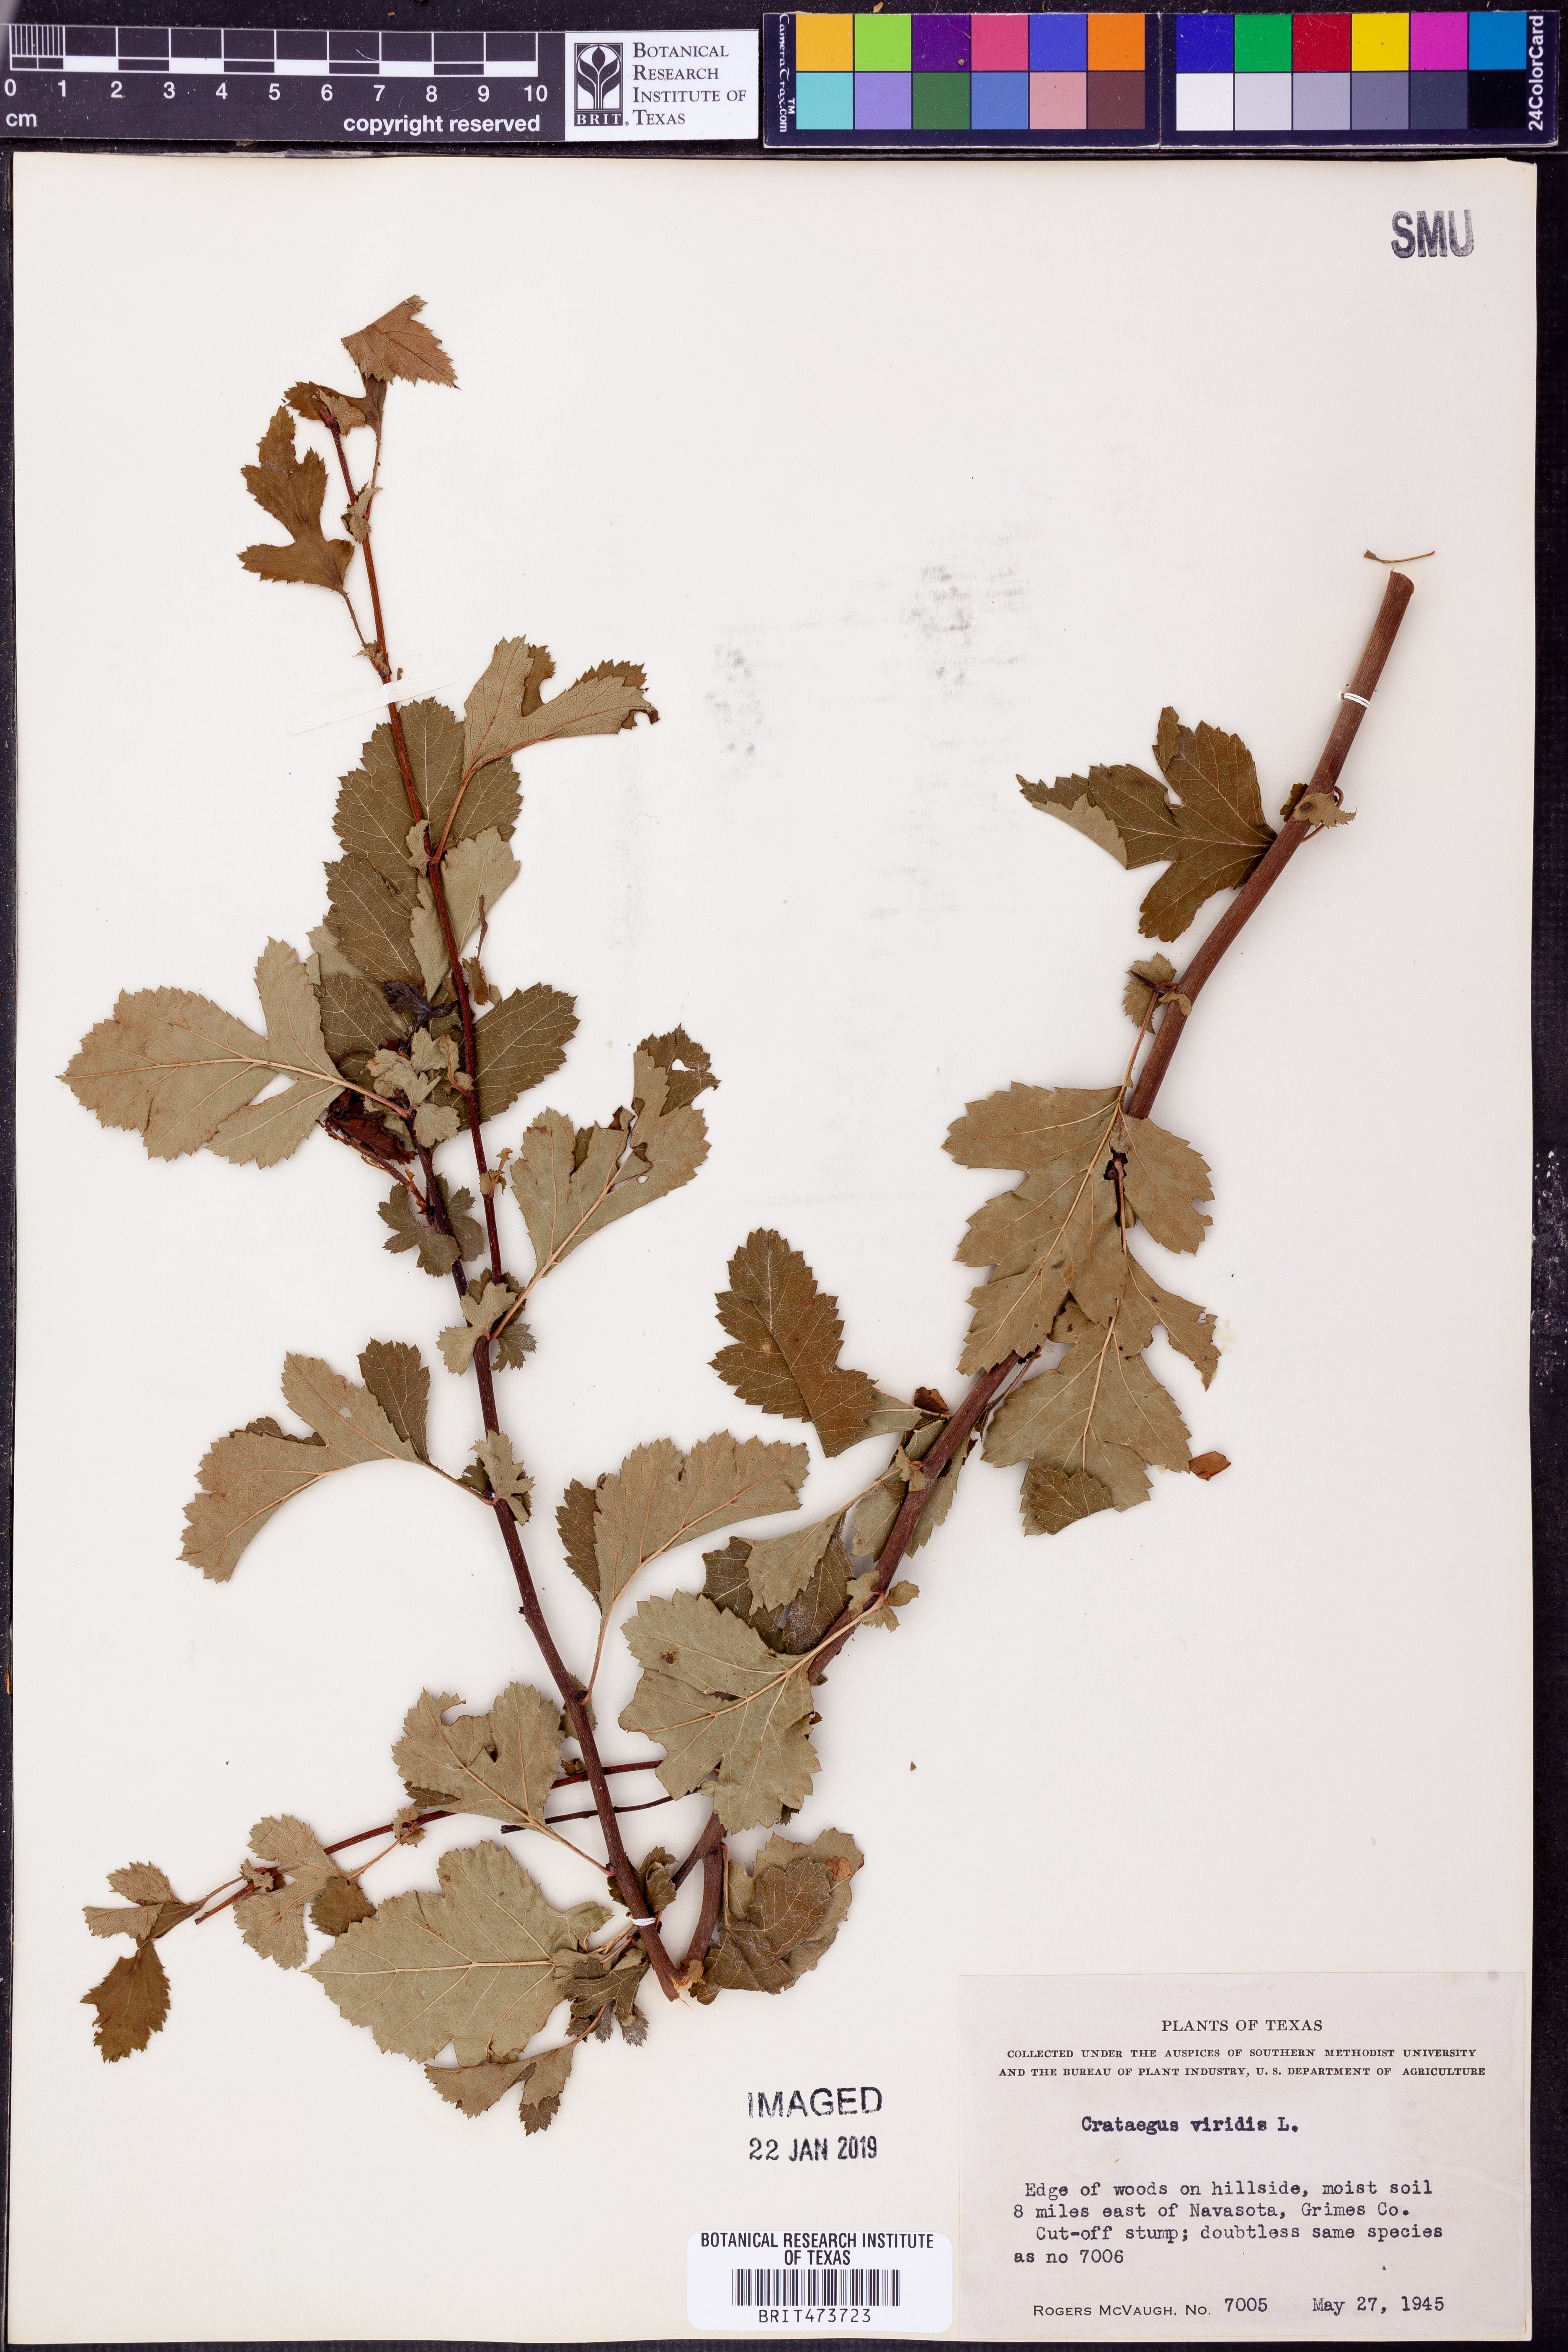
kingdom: Plantae
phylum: Tracheophyta
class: Magnoliopsida
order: Rosales
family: Rosaceae
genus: Crataegus
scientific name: Crataegus viridis
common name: Southernthorn
